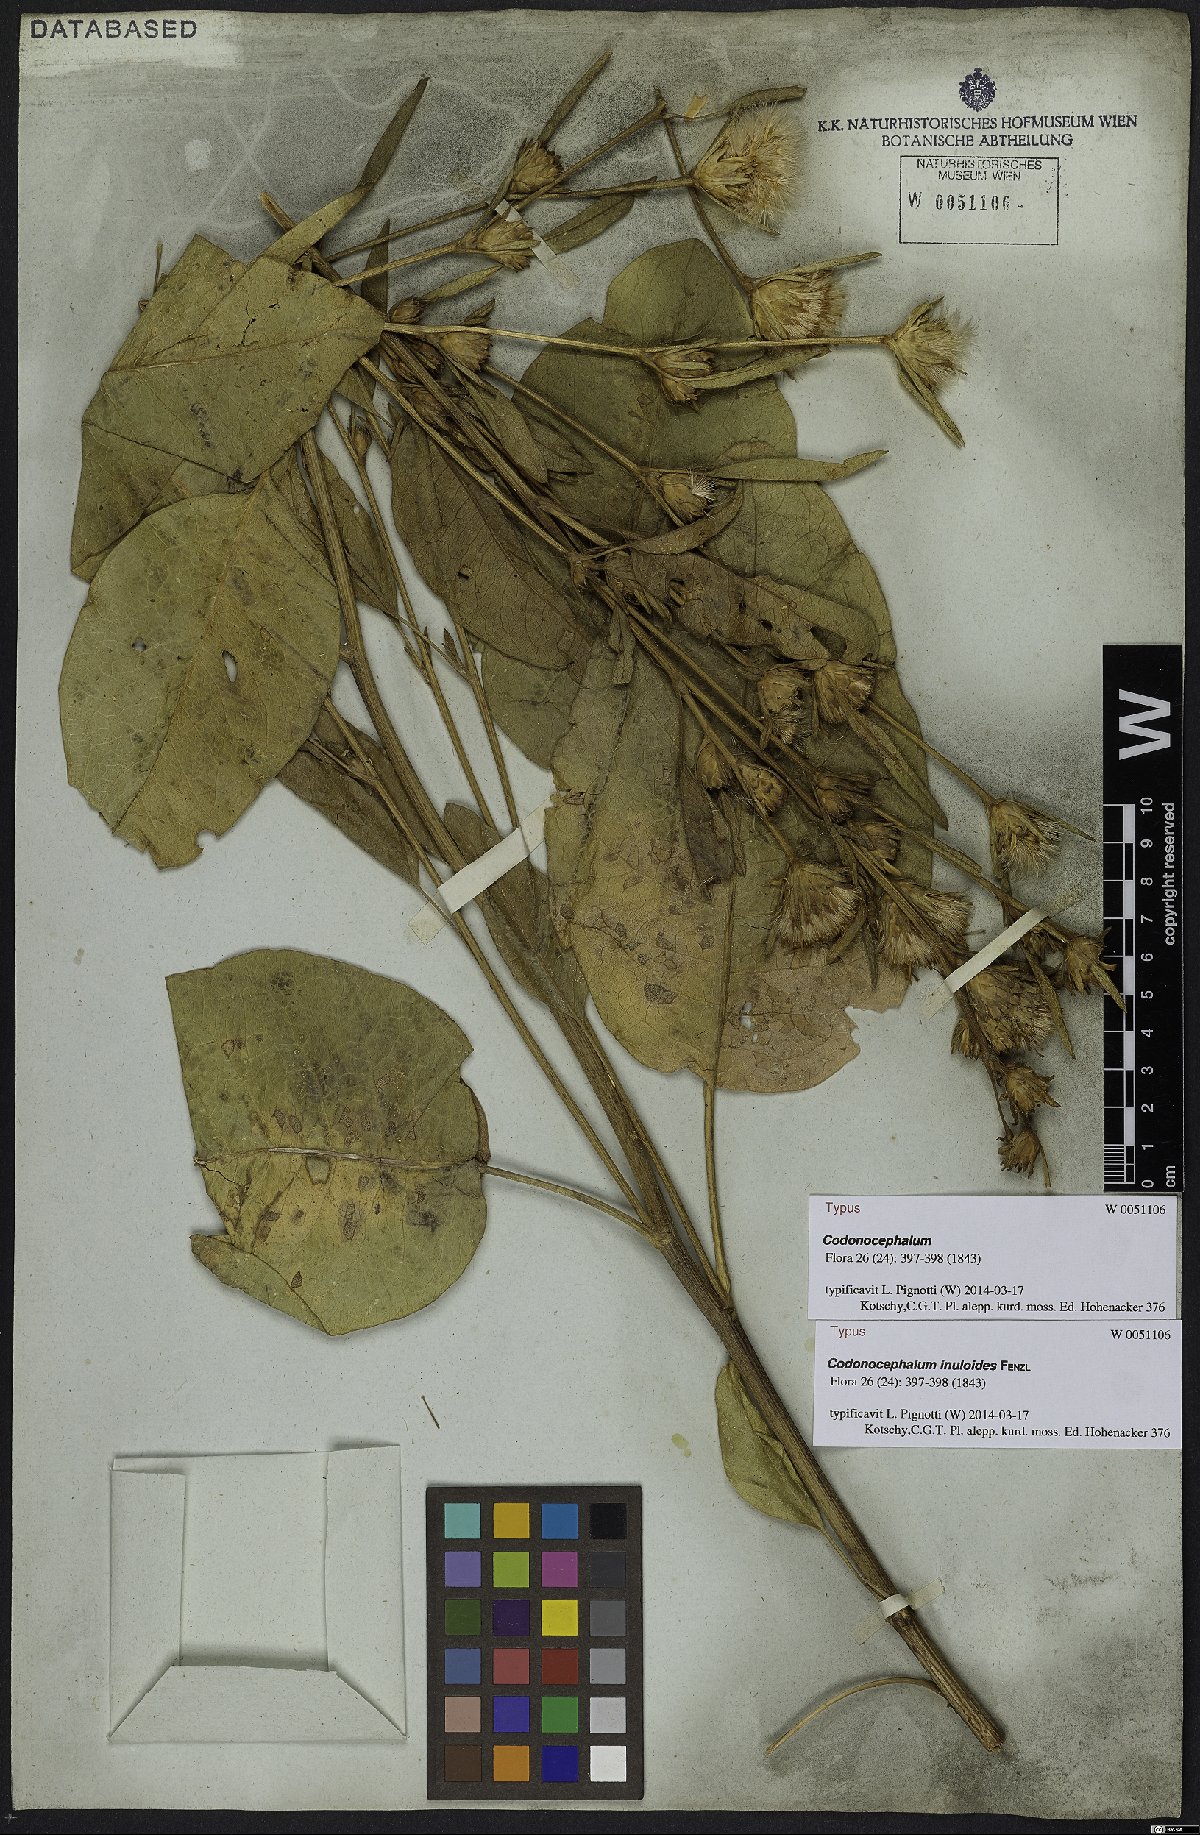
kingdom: Plantae
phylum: Tracheophyta
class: Magnoliopsida
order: Asterales
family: Asteraceae
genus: Inula
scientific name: Inula inuloides
